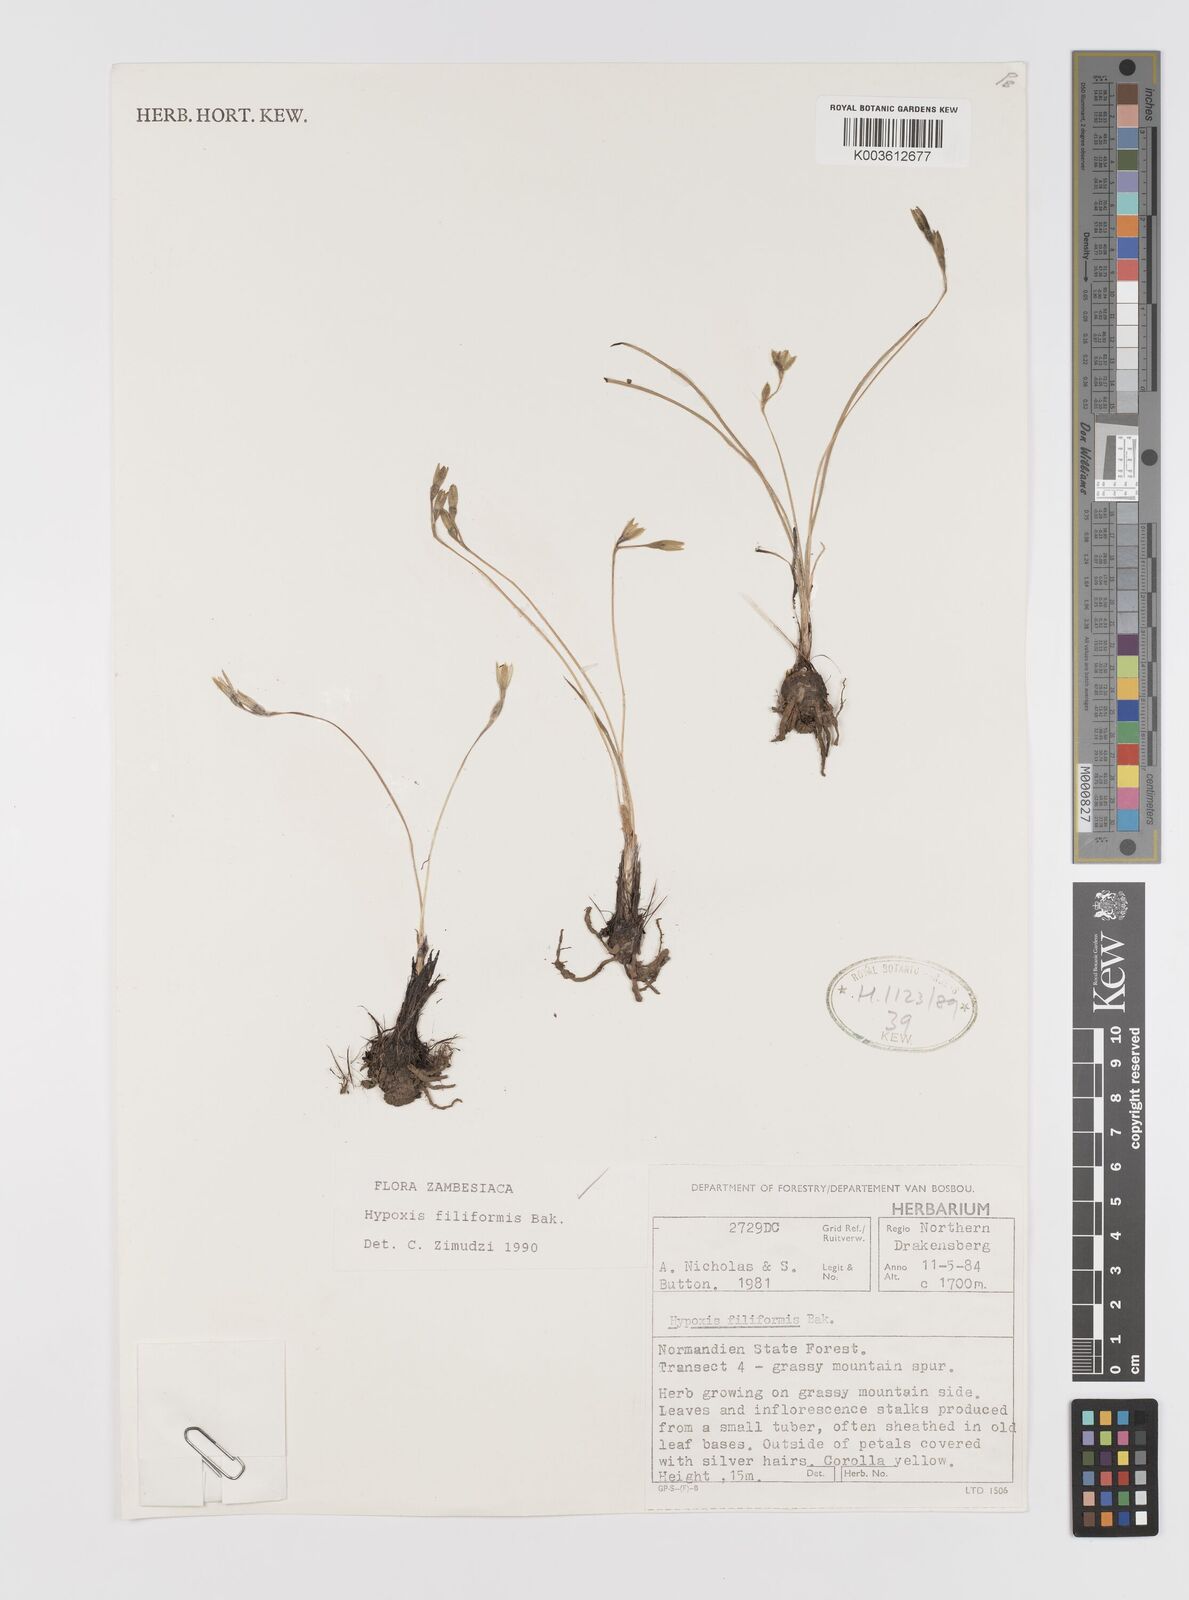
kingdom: Plantae
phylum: Tracheophyta
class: Liliopsida
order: Asparagales
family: Hypoxidaceae
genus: Hypoxis
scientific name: Hypoxis filiformis
